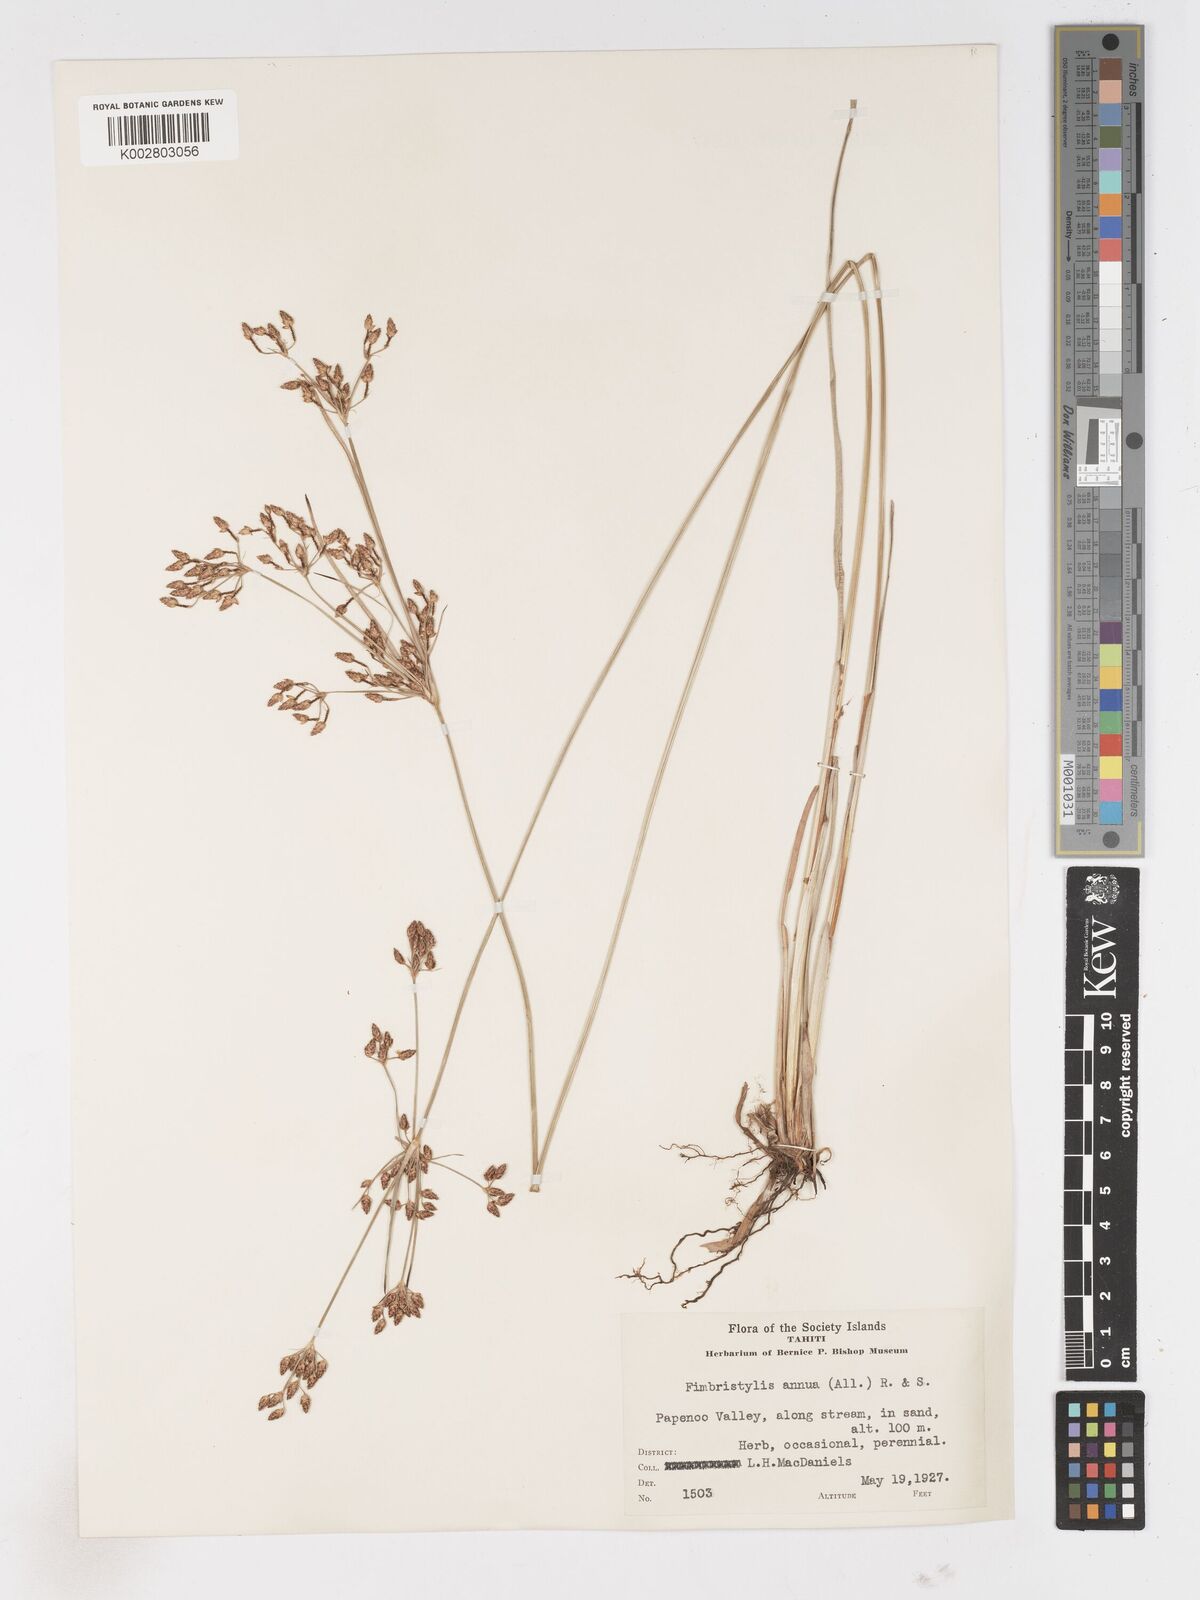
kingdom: Plantae
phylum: Tracheophyta
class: Liliopsida
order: Poales
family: Cyperaceae
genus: Fimbristylis
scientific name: Fimbristylis dichotoma
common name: Forked fimbry
